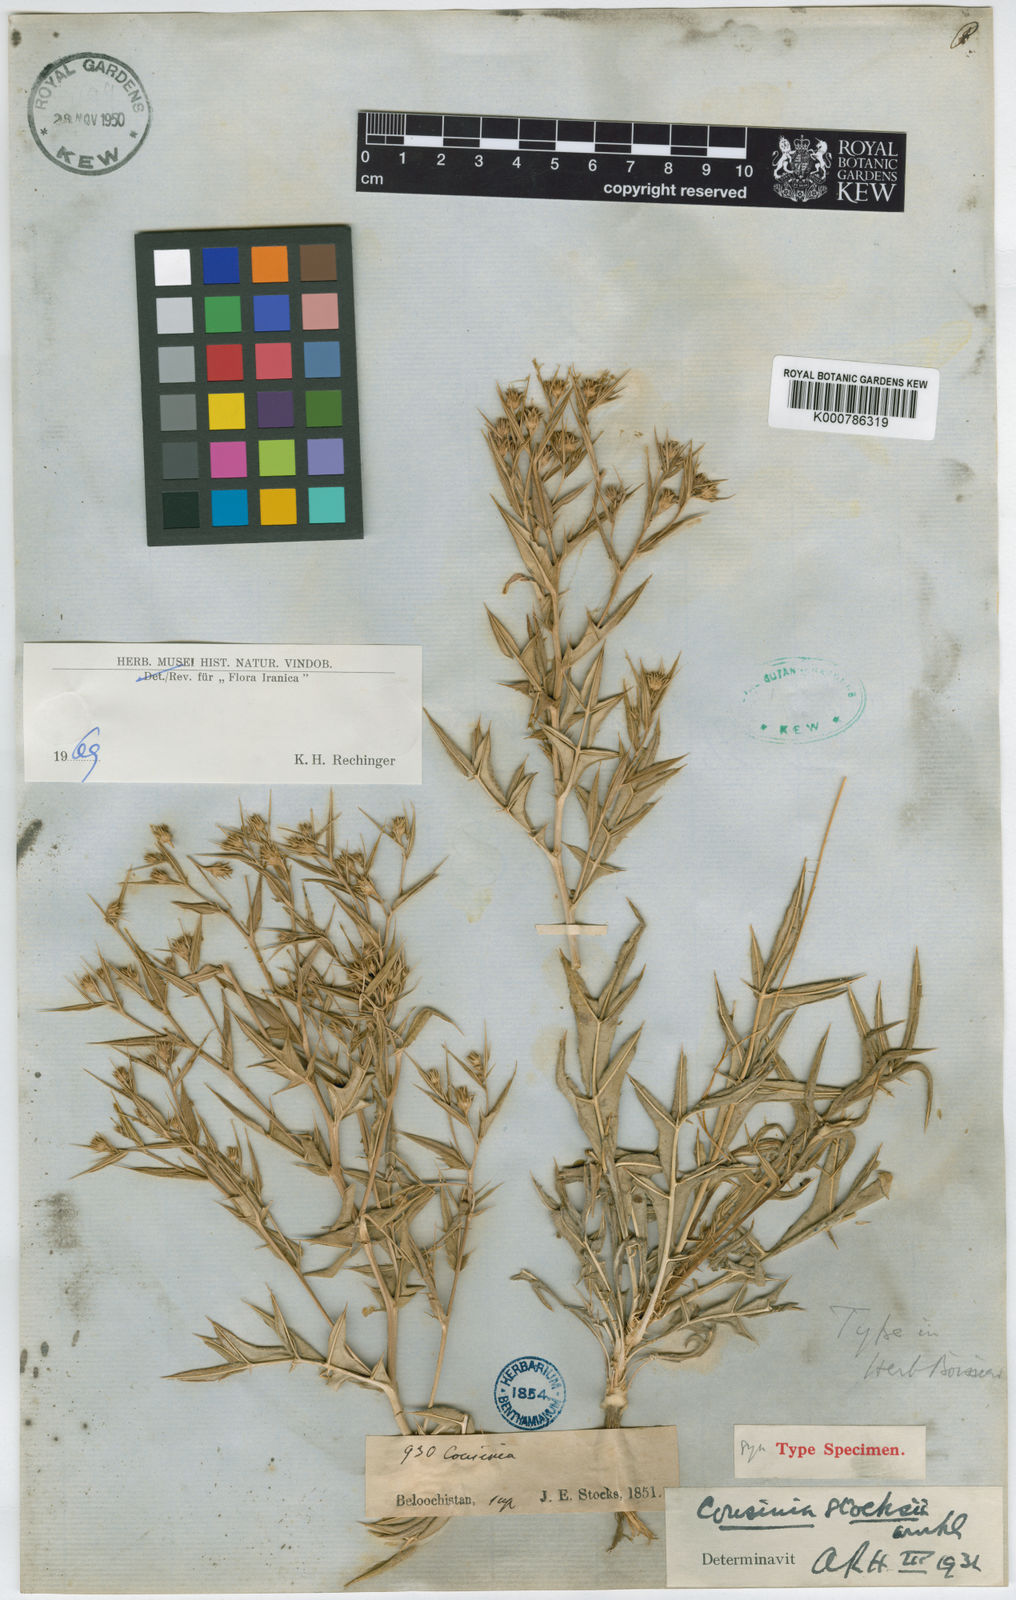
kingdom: Plantae
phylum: Tracheophyta
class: Magnoliopsida
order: Asterales
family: Asteraceae
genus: Cousinia
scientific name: Cousinia stocksii
